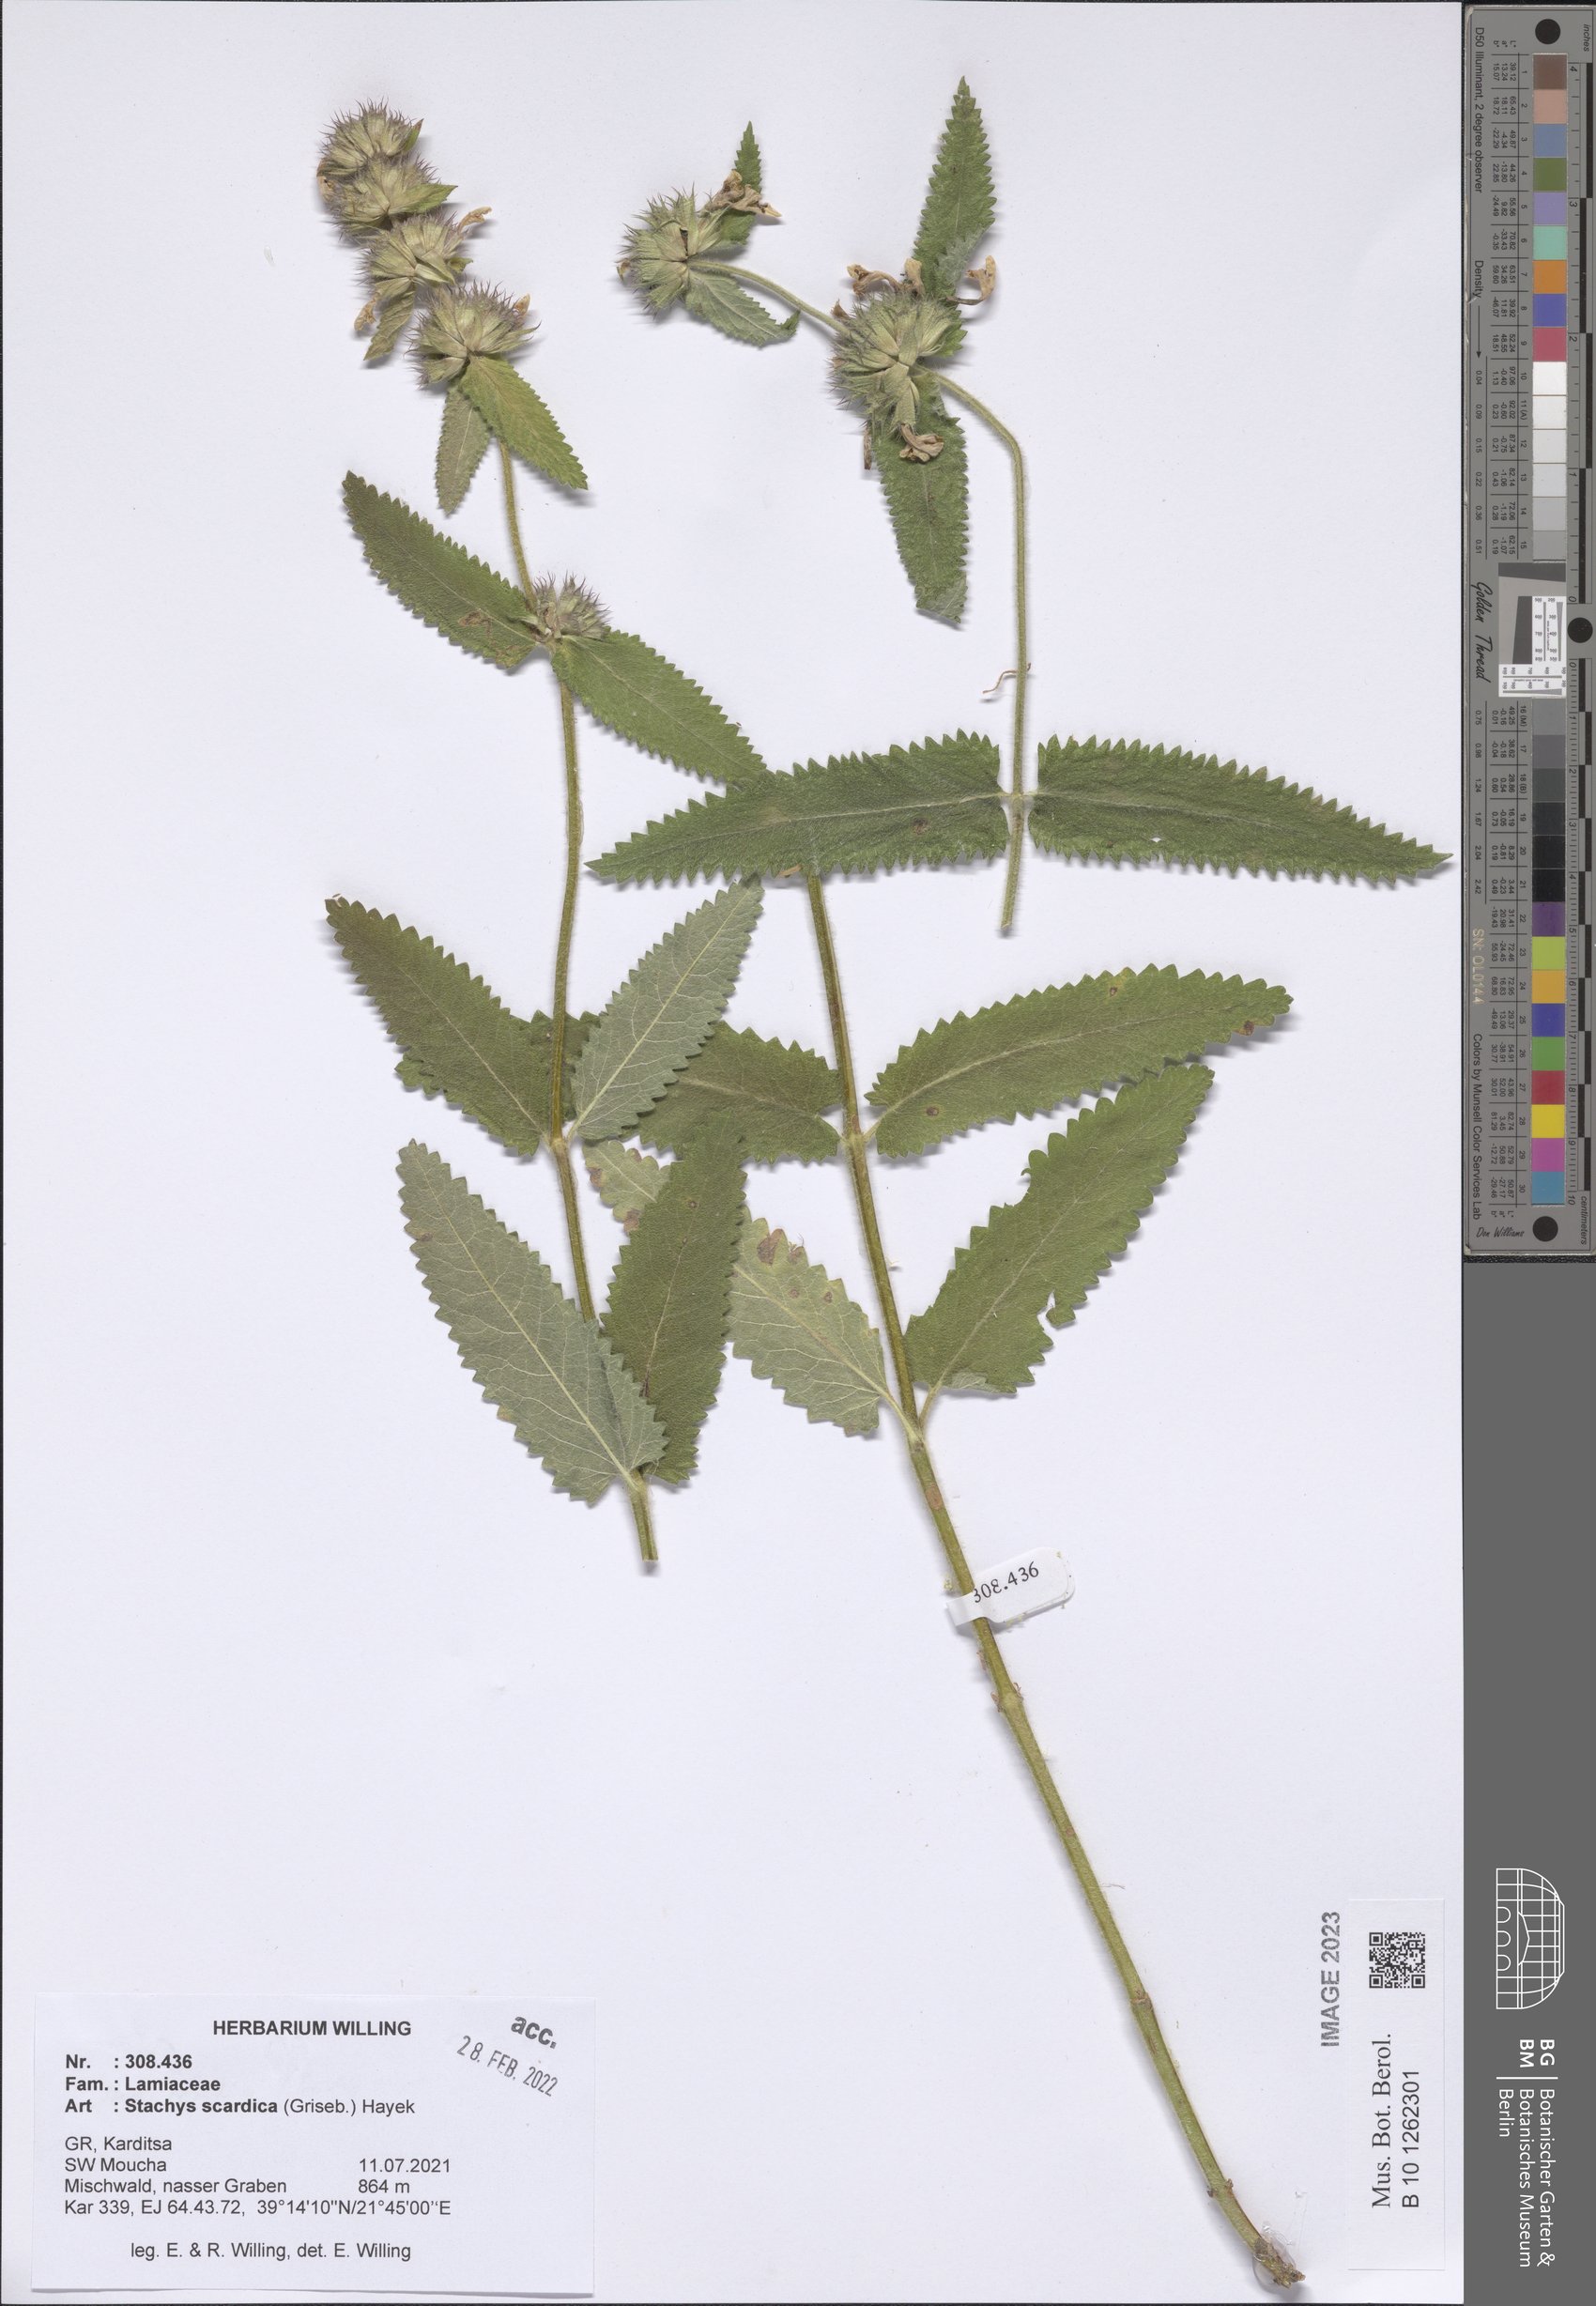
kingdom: Plantae
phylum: Tracheophyta
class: Magnoliopsida
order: Lamiales
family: Lamiaceae
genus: Betonica
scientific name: Betonica scardica
